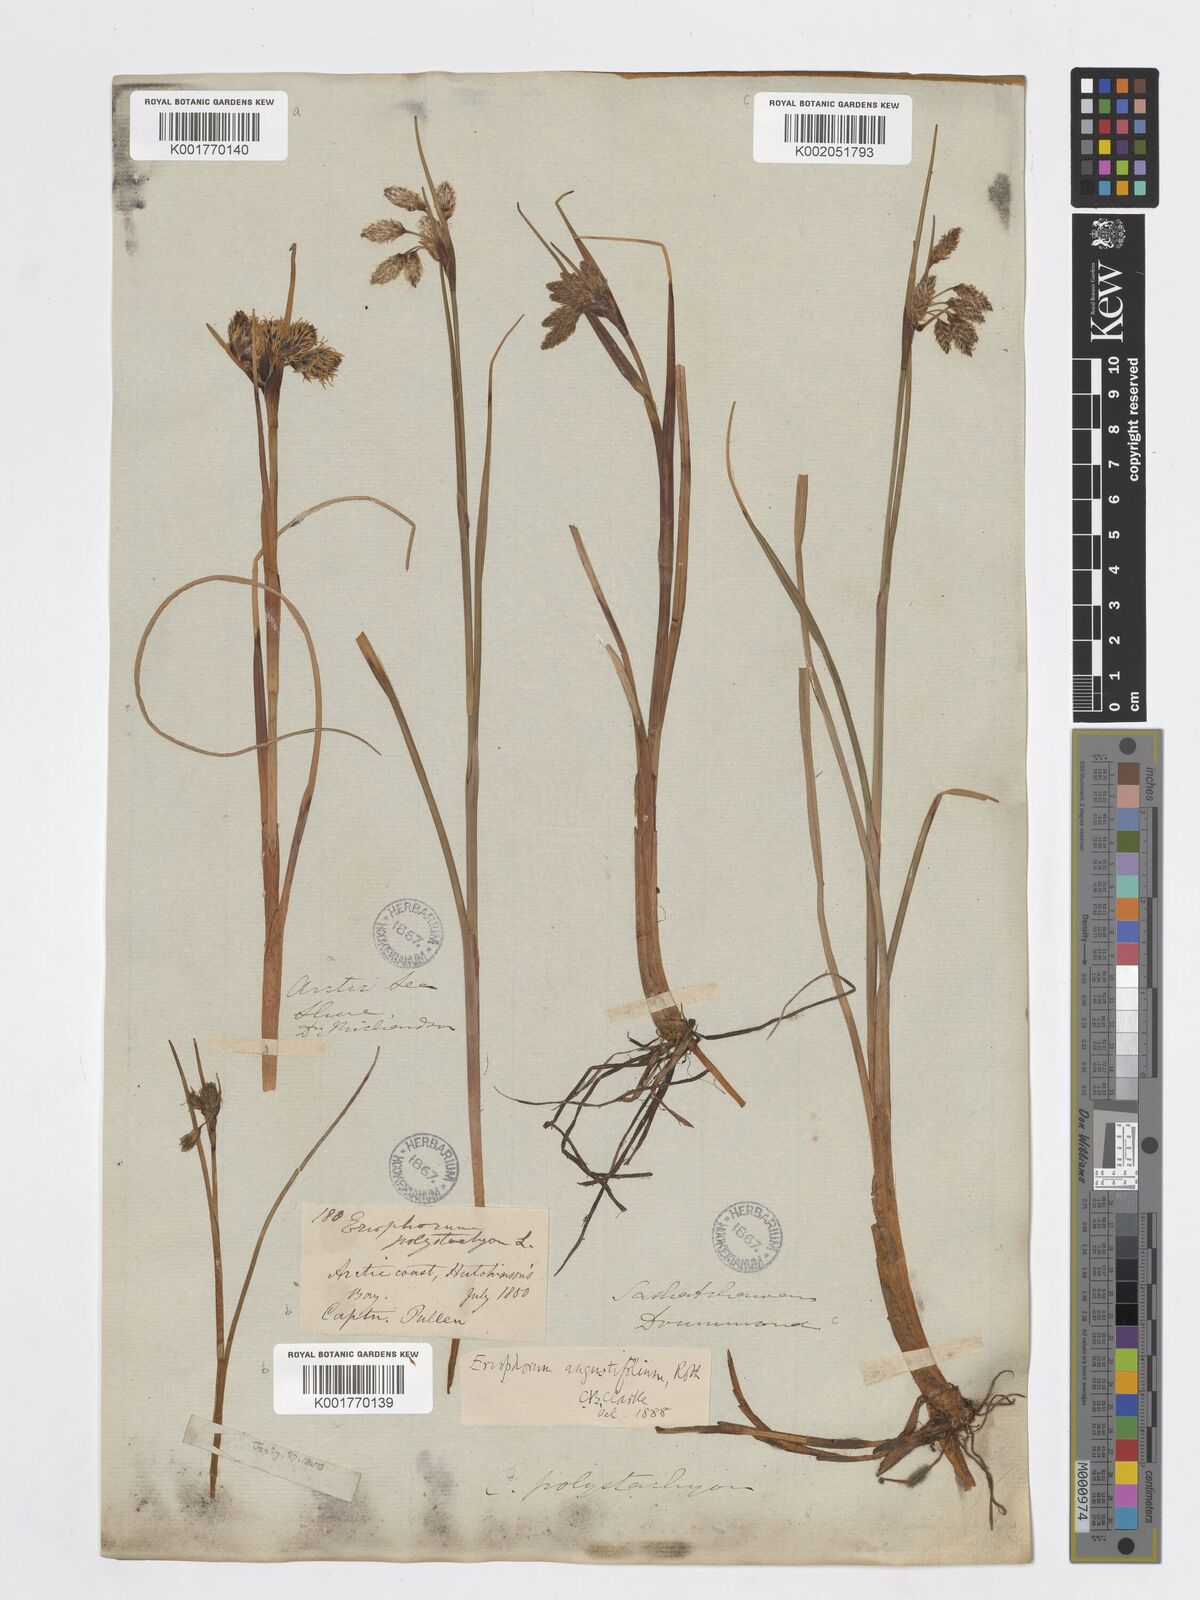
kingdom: Plantae
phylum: Tracheophyta
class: Liliopsida
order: Poales
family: Cyperaceae
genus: Eriophorum
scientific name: Eriophorum angustifolium
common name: Common cottongrass
